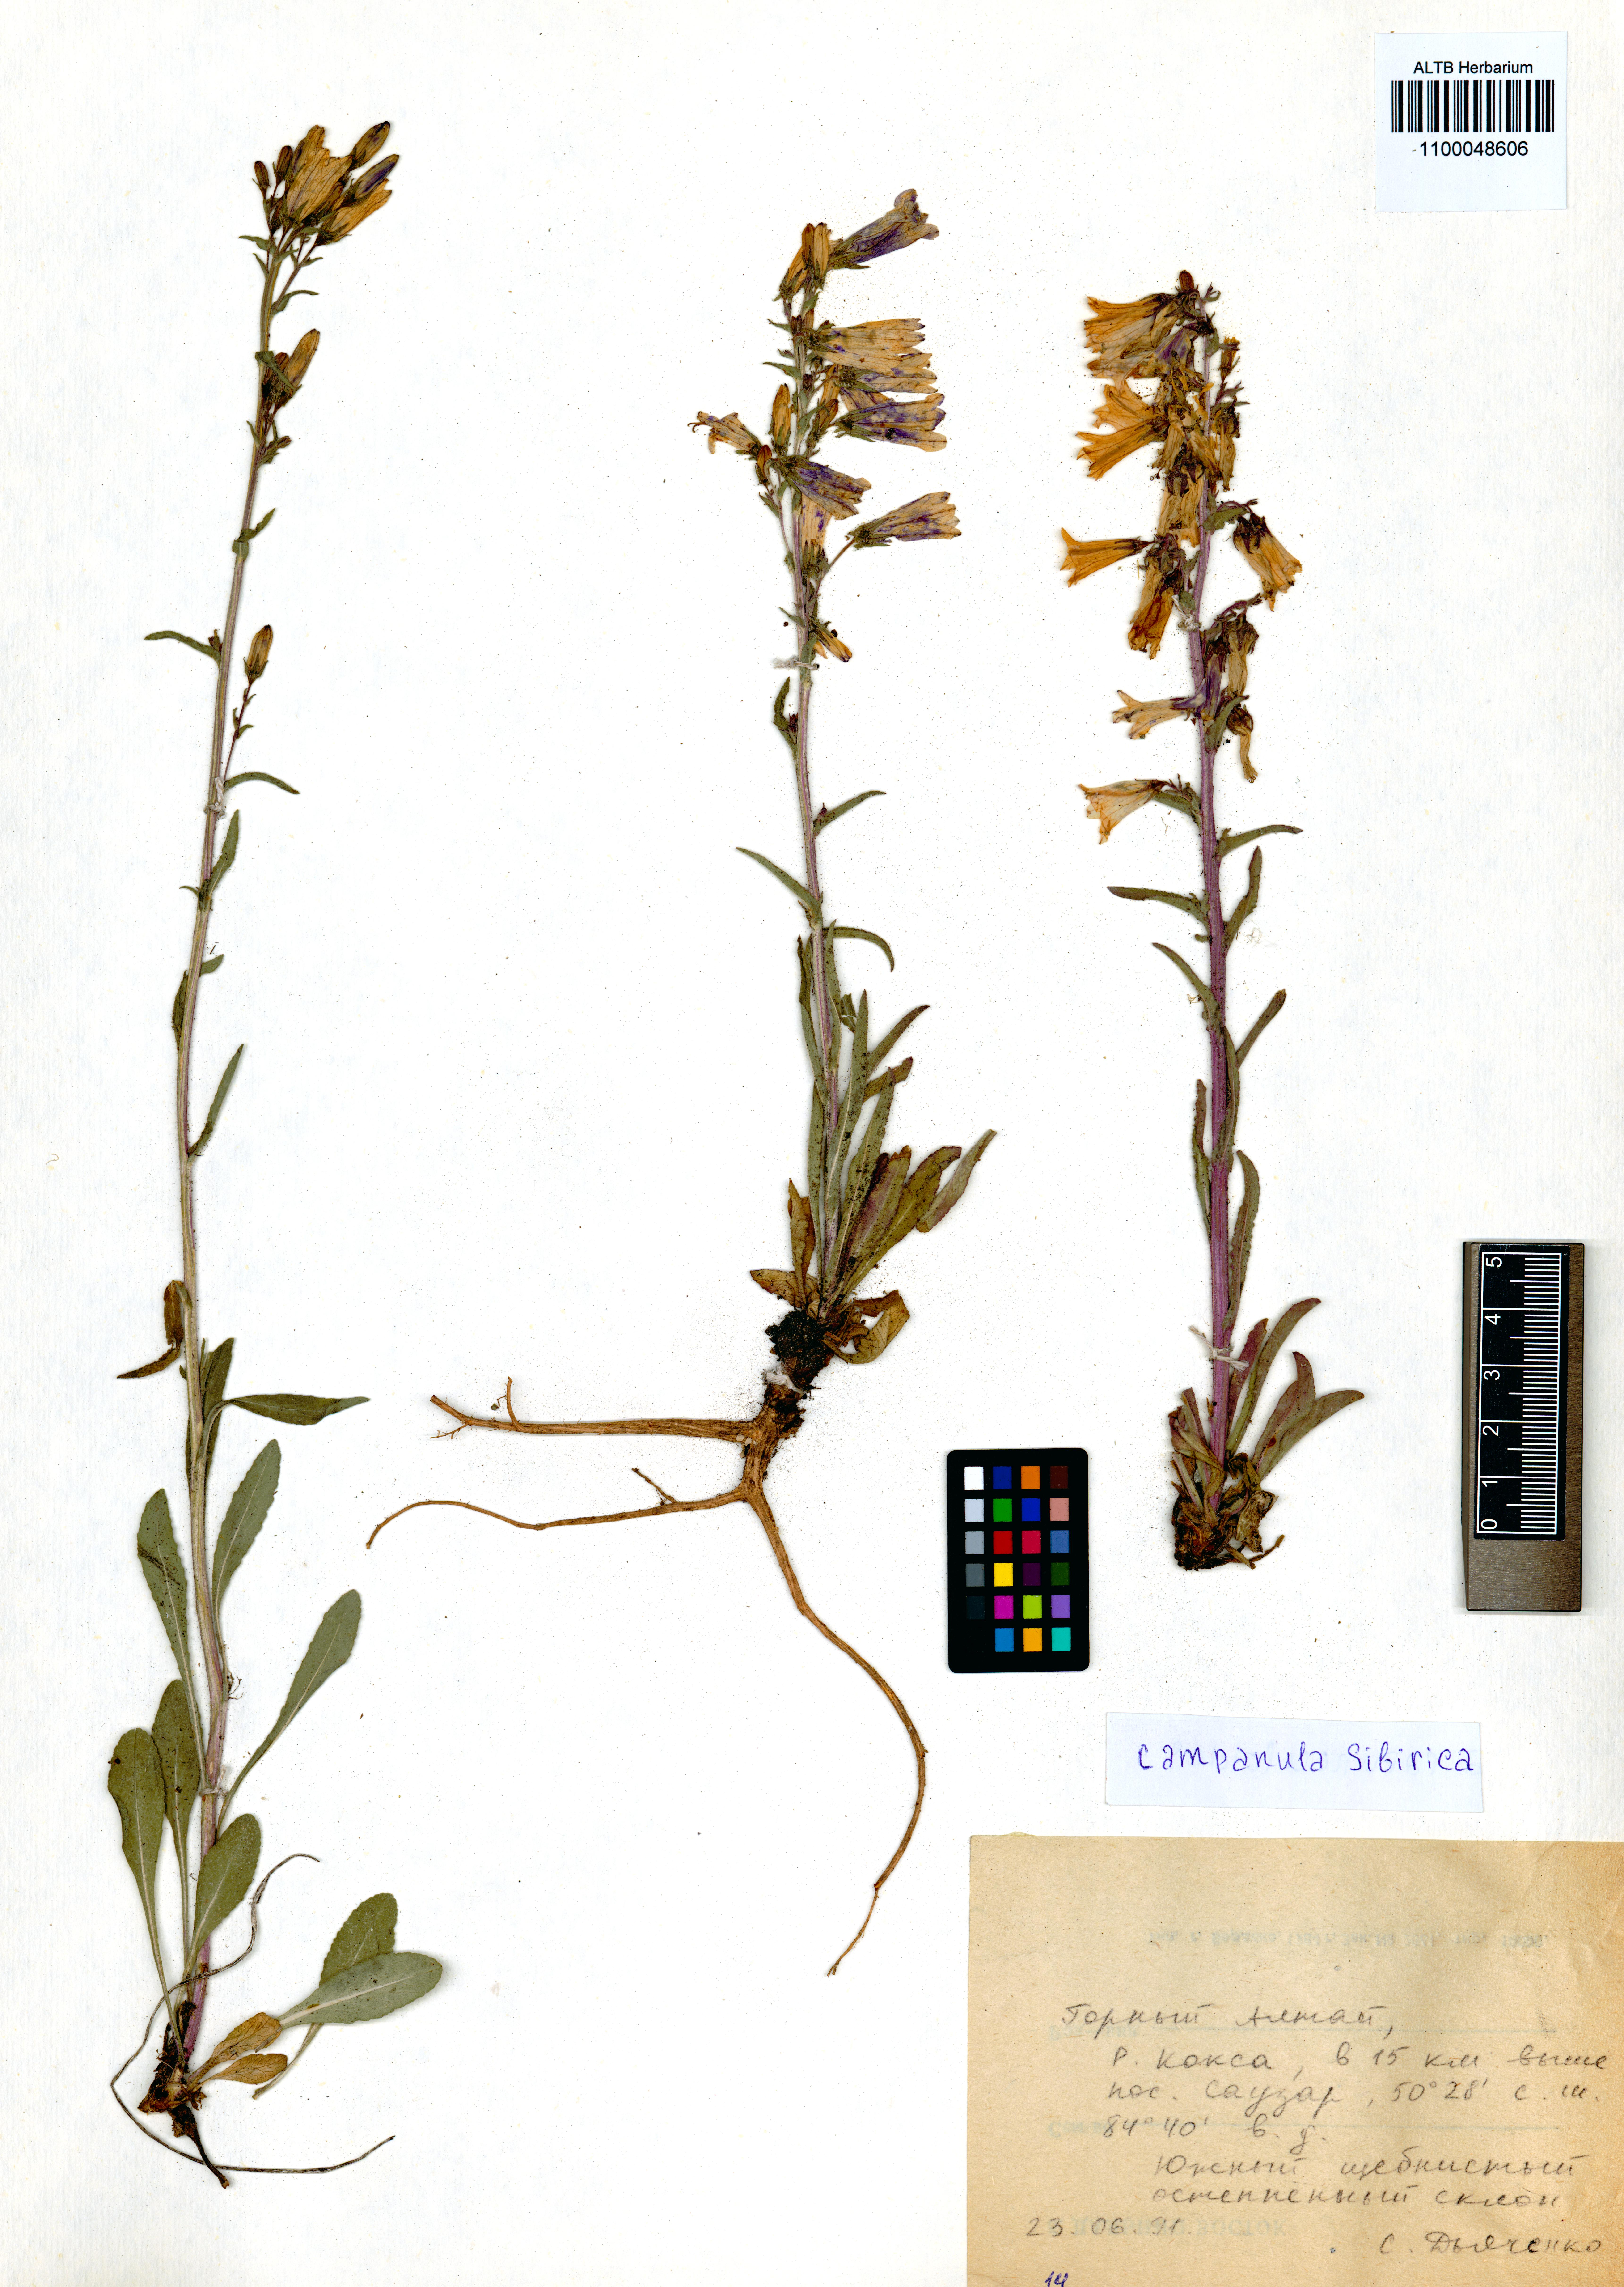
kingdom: Plantae
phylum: Tracheophyta
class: Magnoliopsida
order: Asterales
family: Campanulaceae
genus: Campanula
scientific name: Campanula sibirica
